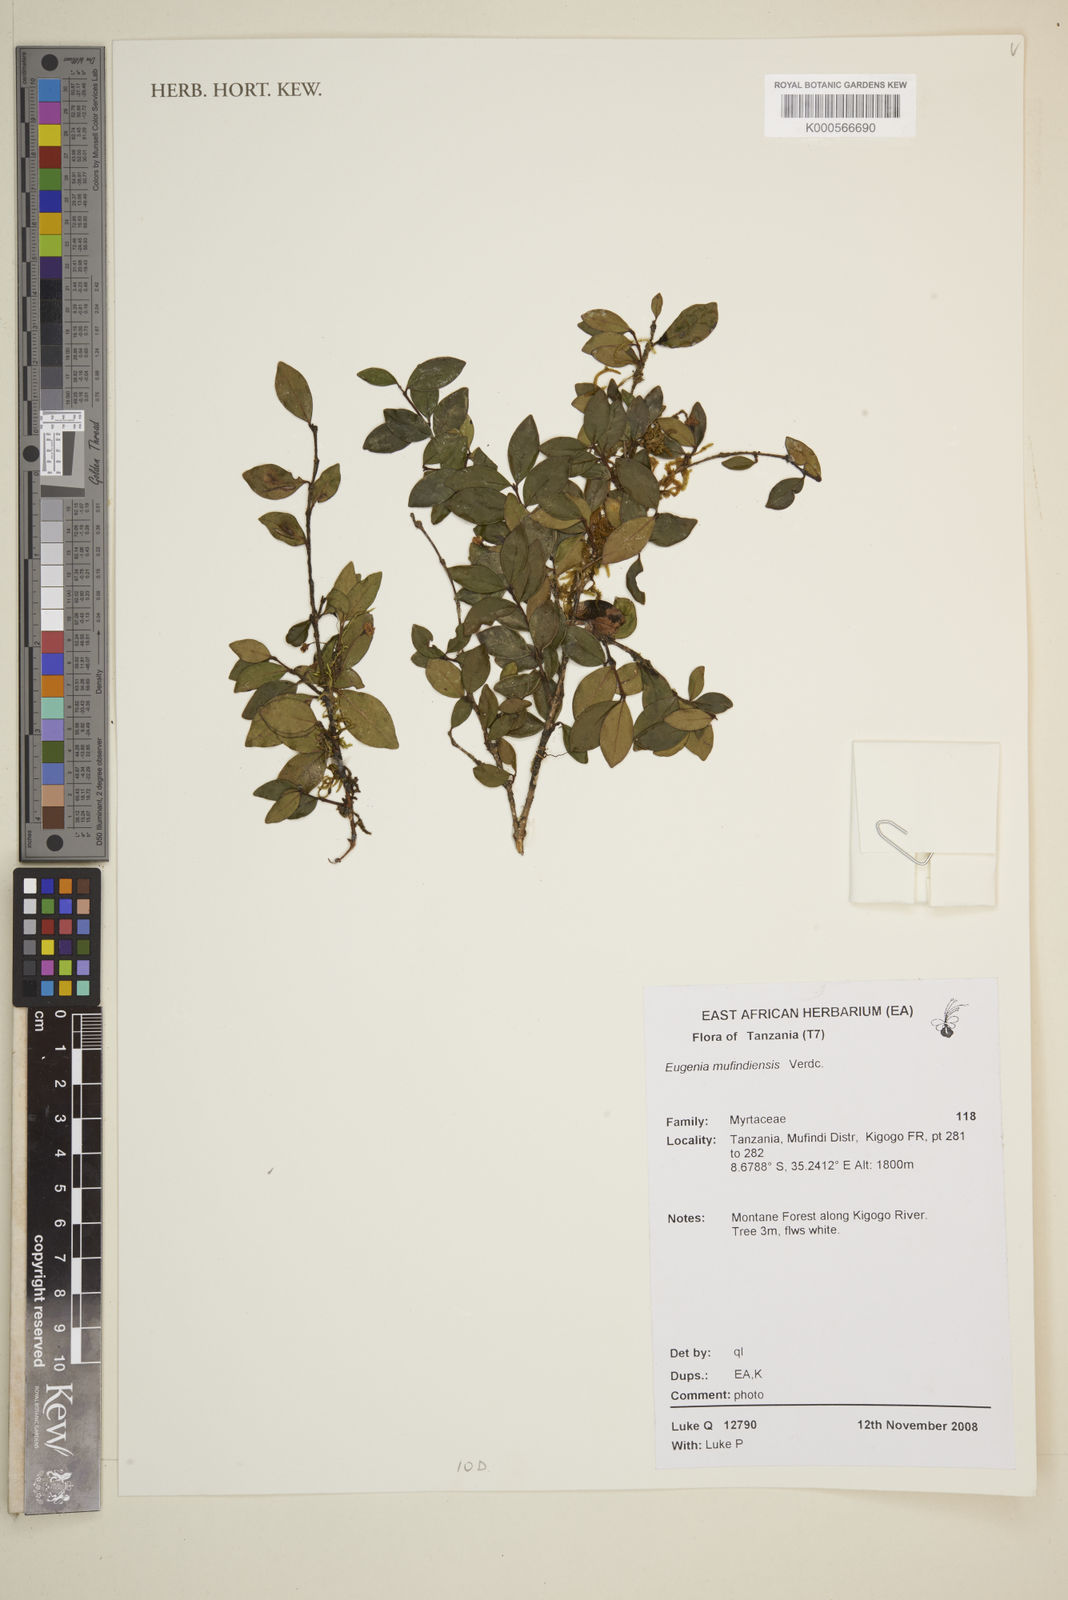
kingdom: Plantae
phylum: Tracheophyta
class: Magnoliopsida
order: Myrtales
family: Myrtaceae
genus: Eugenia
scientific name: Eugenia mufindiensis
